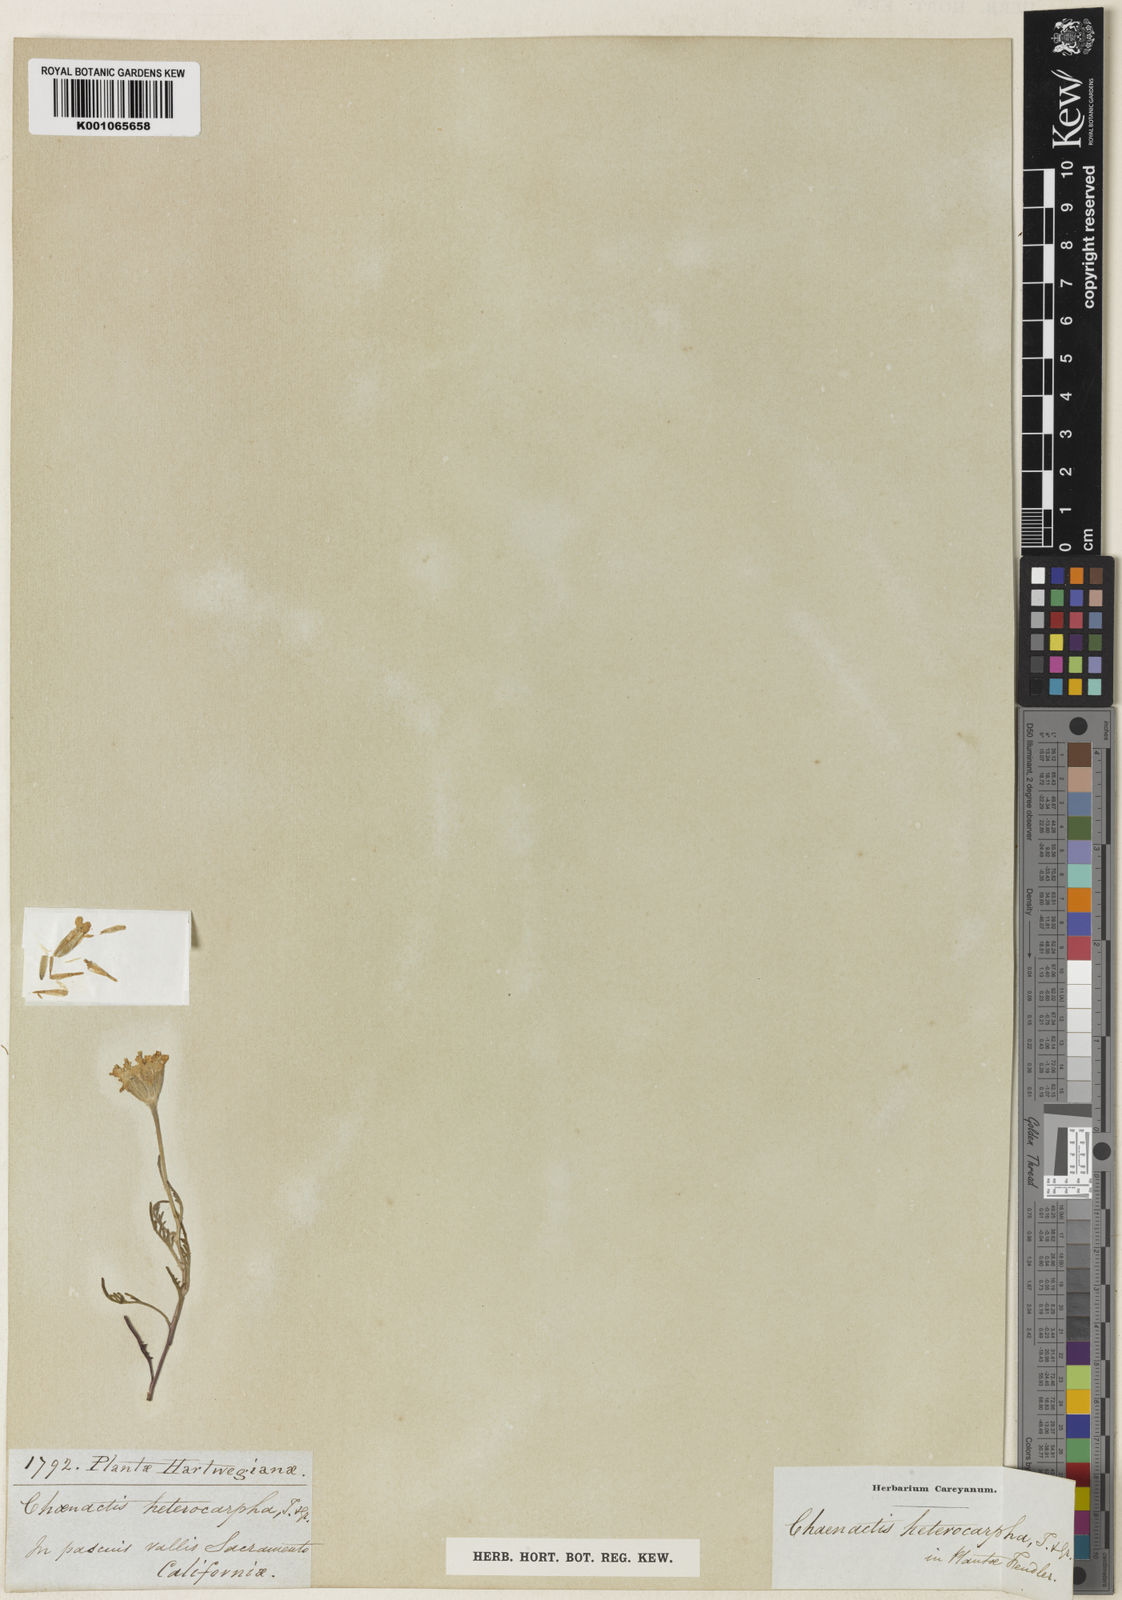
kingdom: Plantae
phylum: Tracheophyta
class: Magnoliopsida
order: Asterales
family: Asteraceae
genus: Chaenactis
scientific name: Chaenactis glabriuscula
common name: Yellow pincushion
